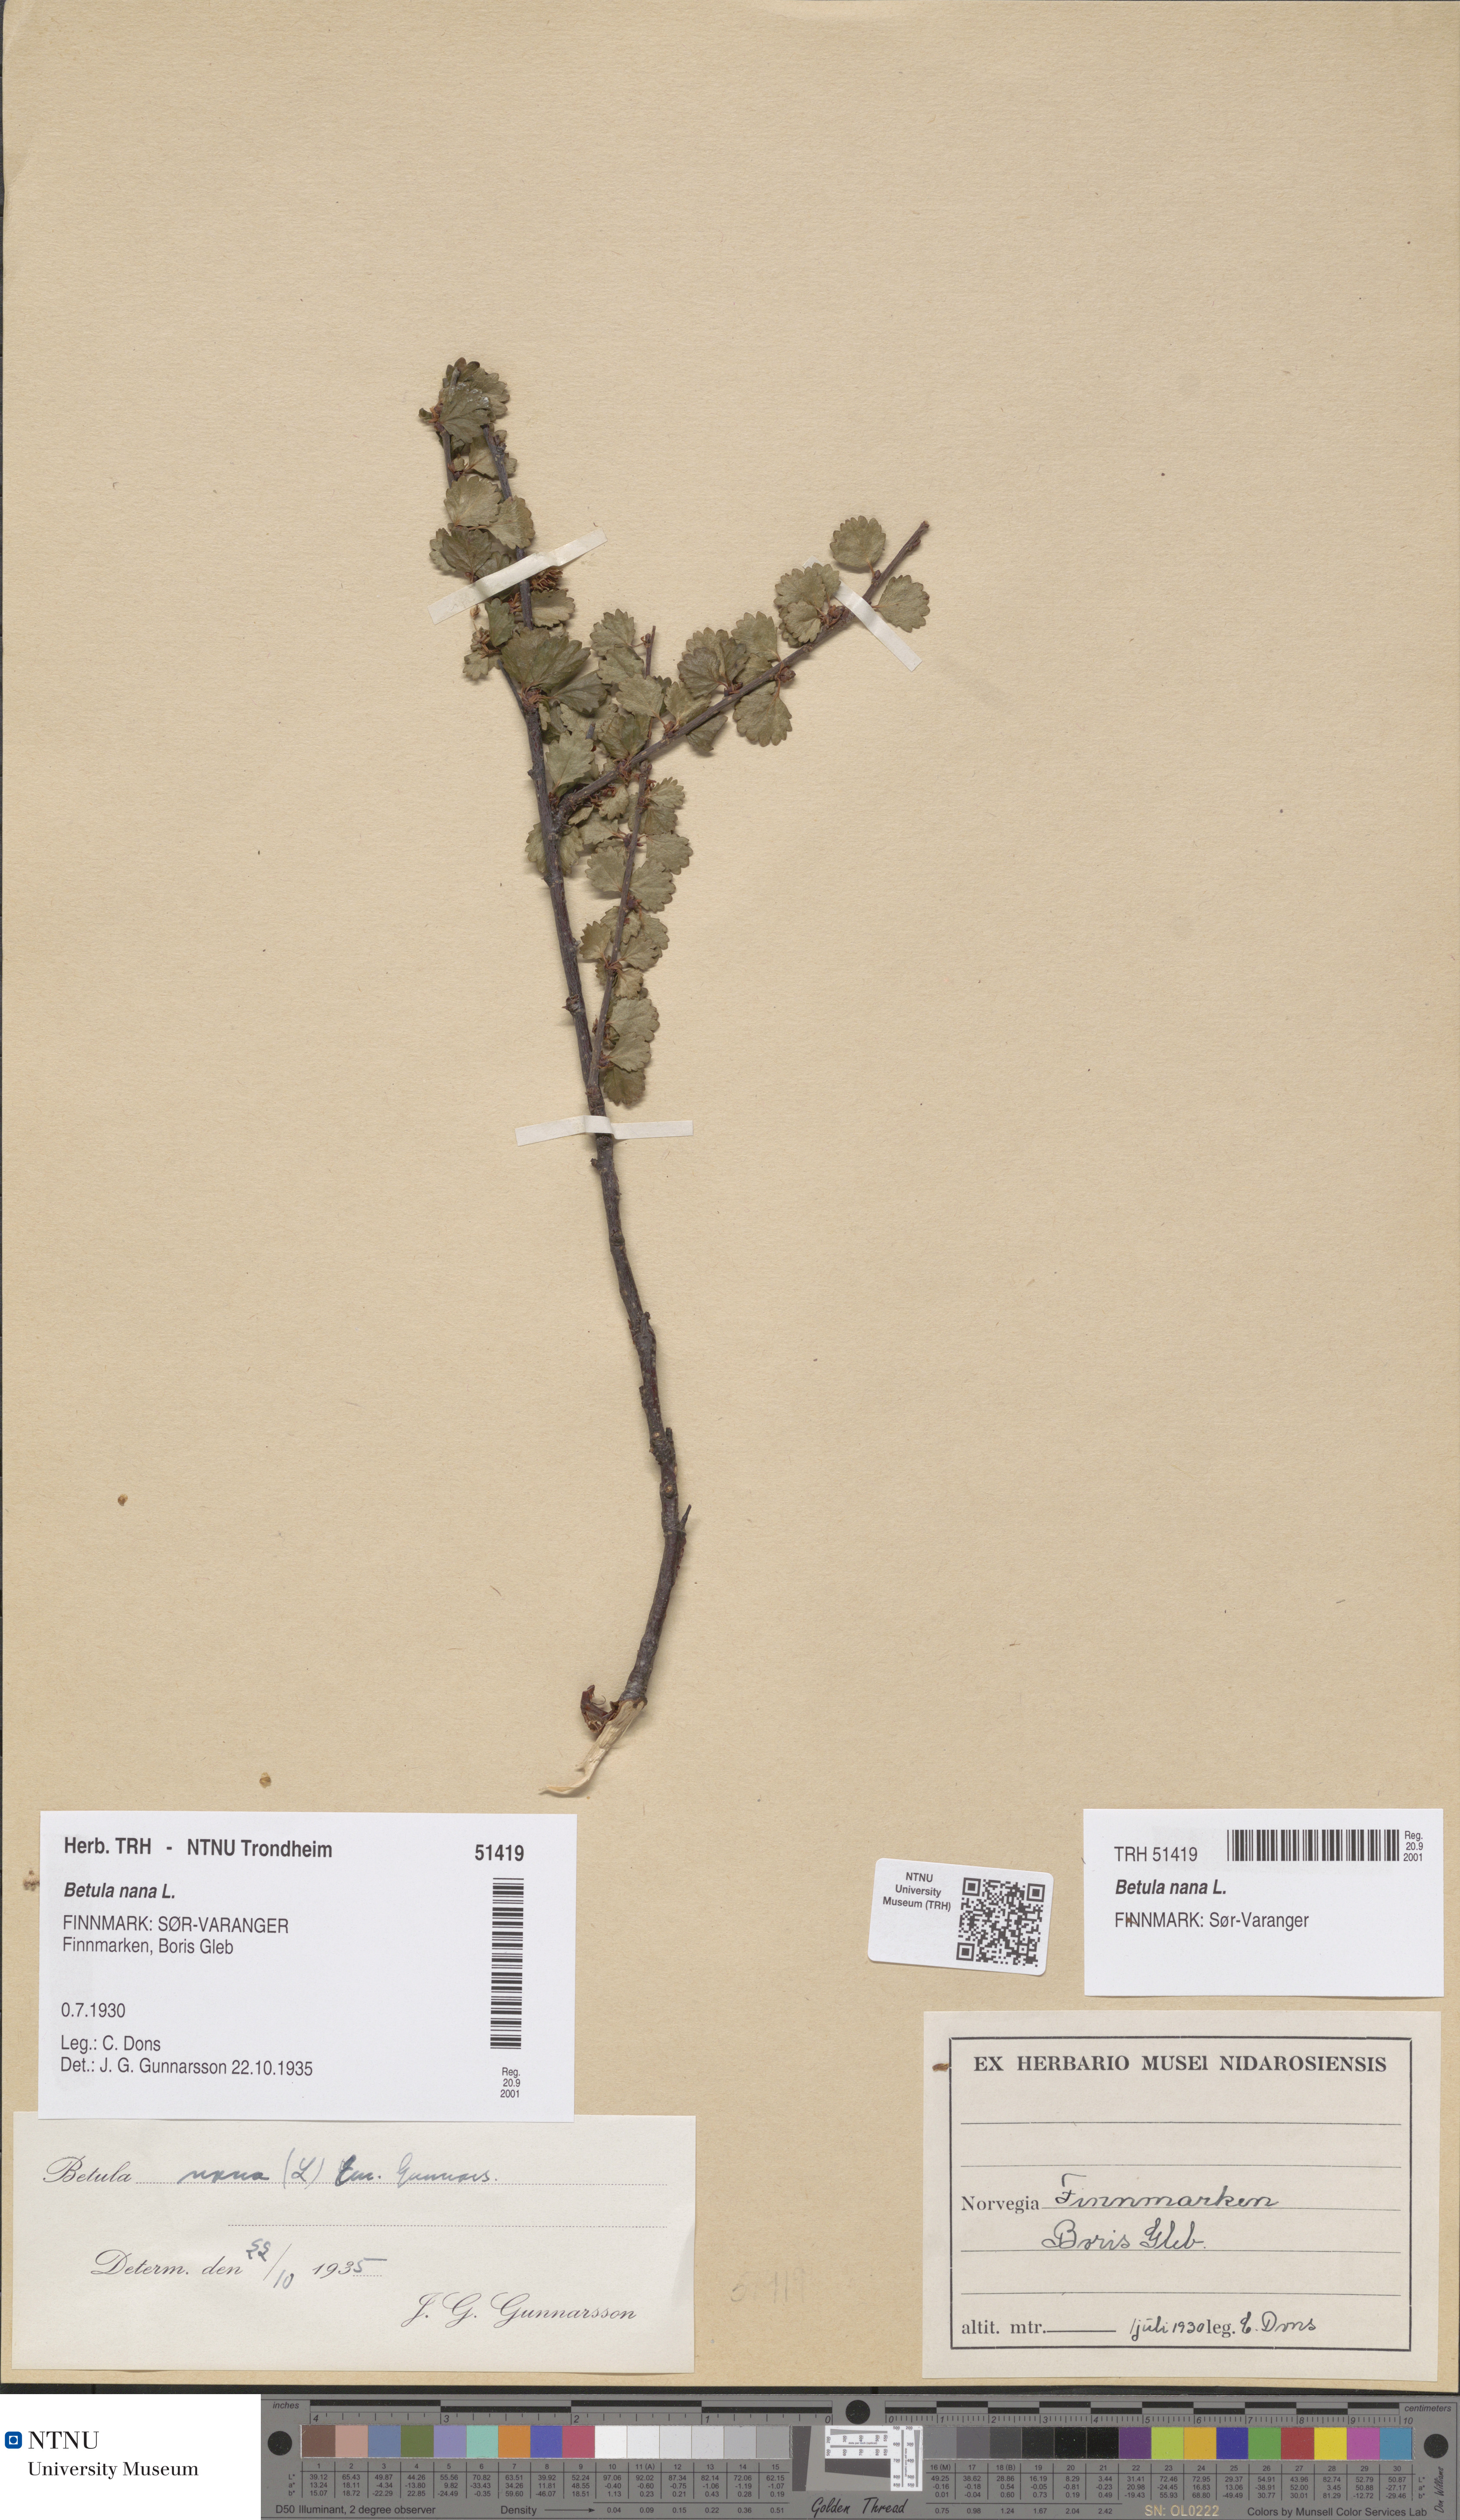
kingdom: Plantae
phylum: Tracheophyta
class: Magnoliopsida
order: Fagales
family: Betulaceae
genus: Betula
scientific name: Betula nana
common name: Arctic dwarf birch
